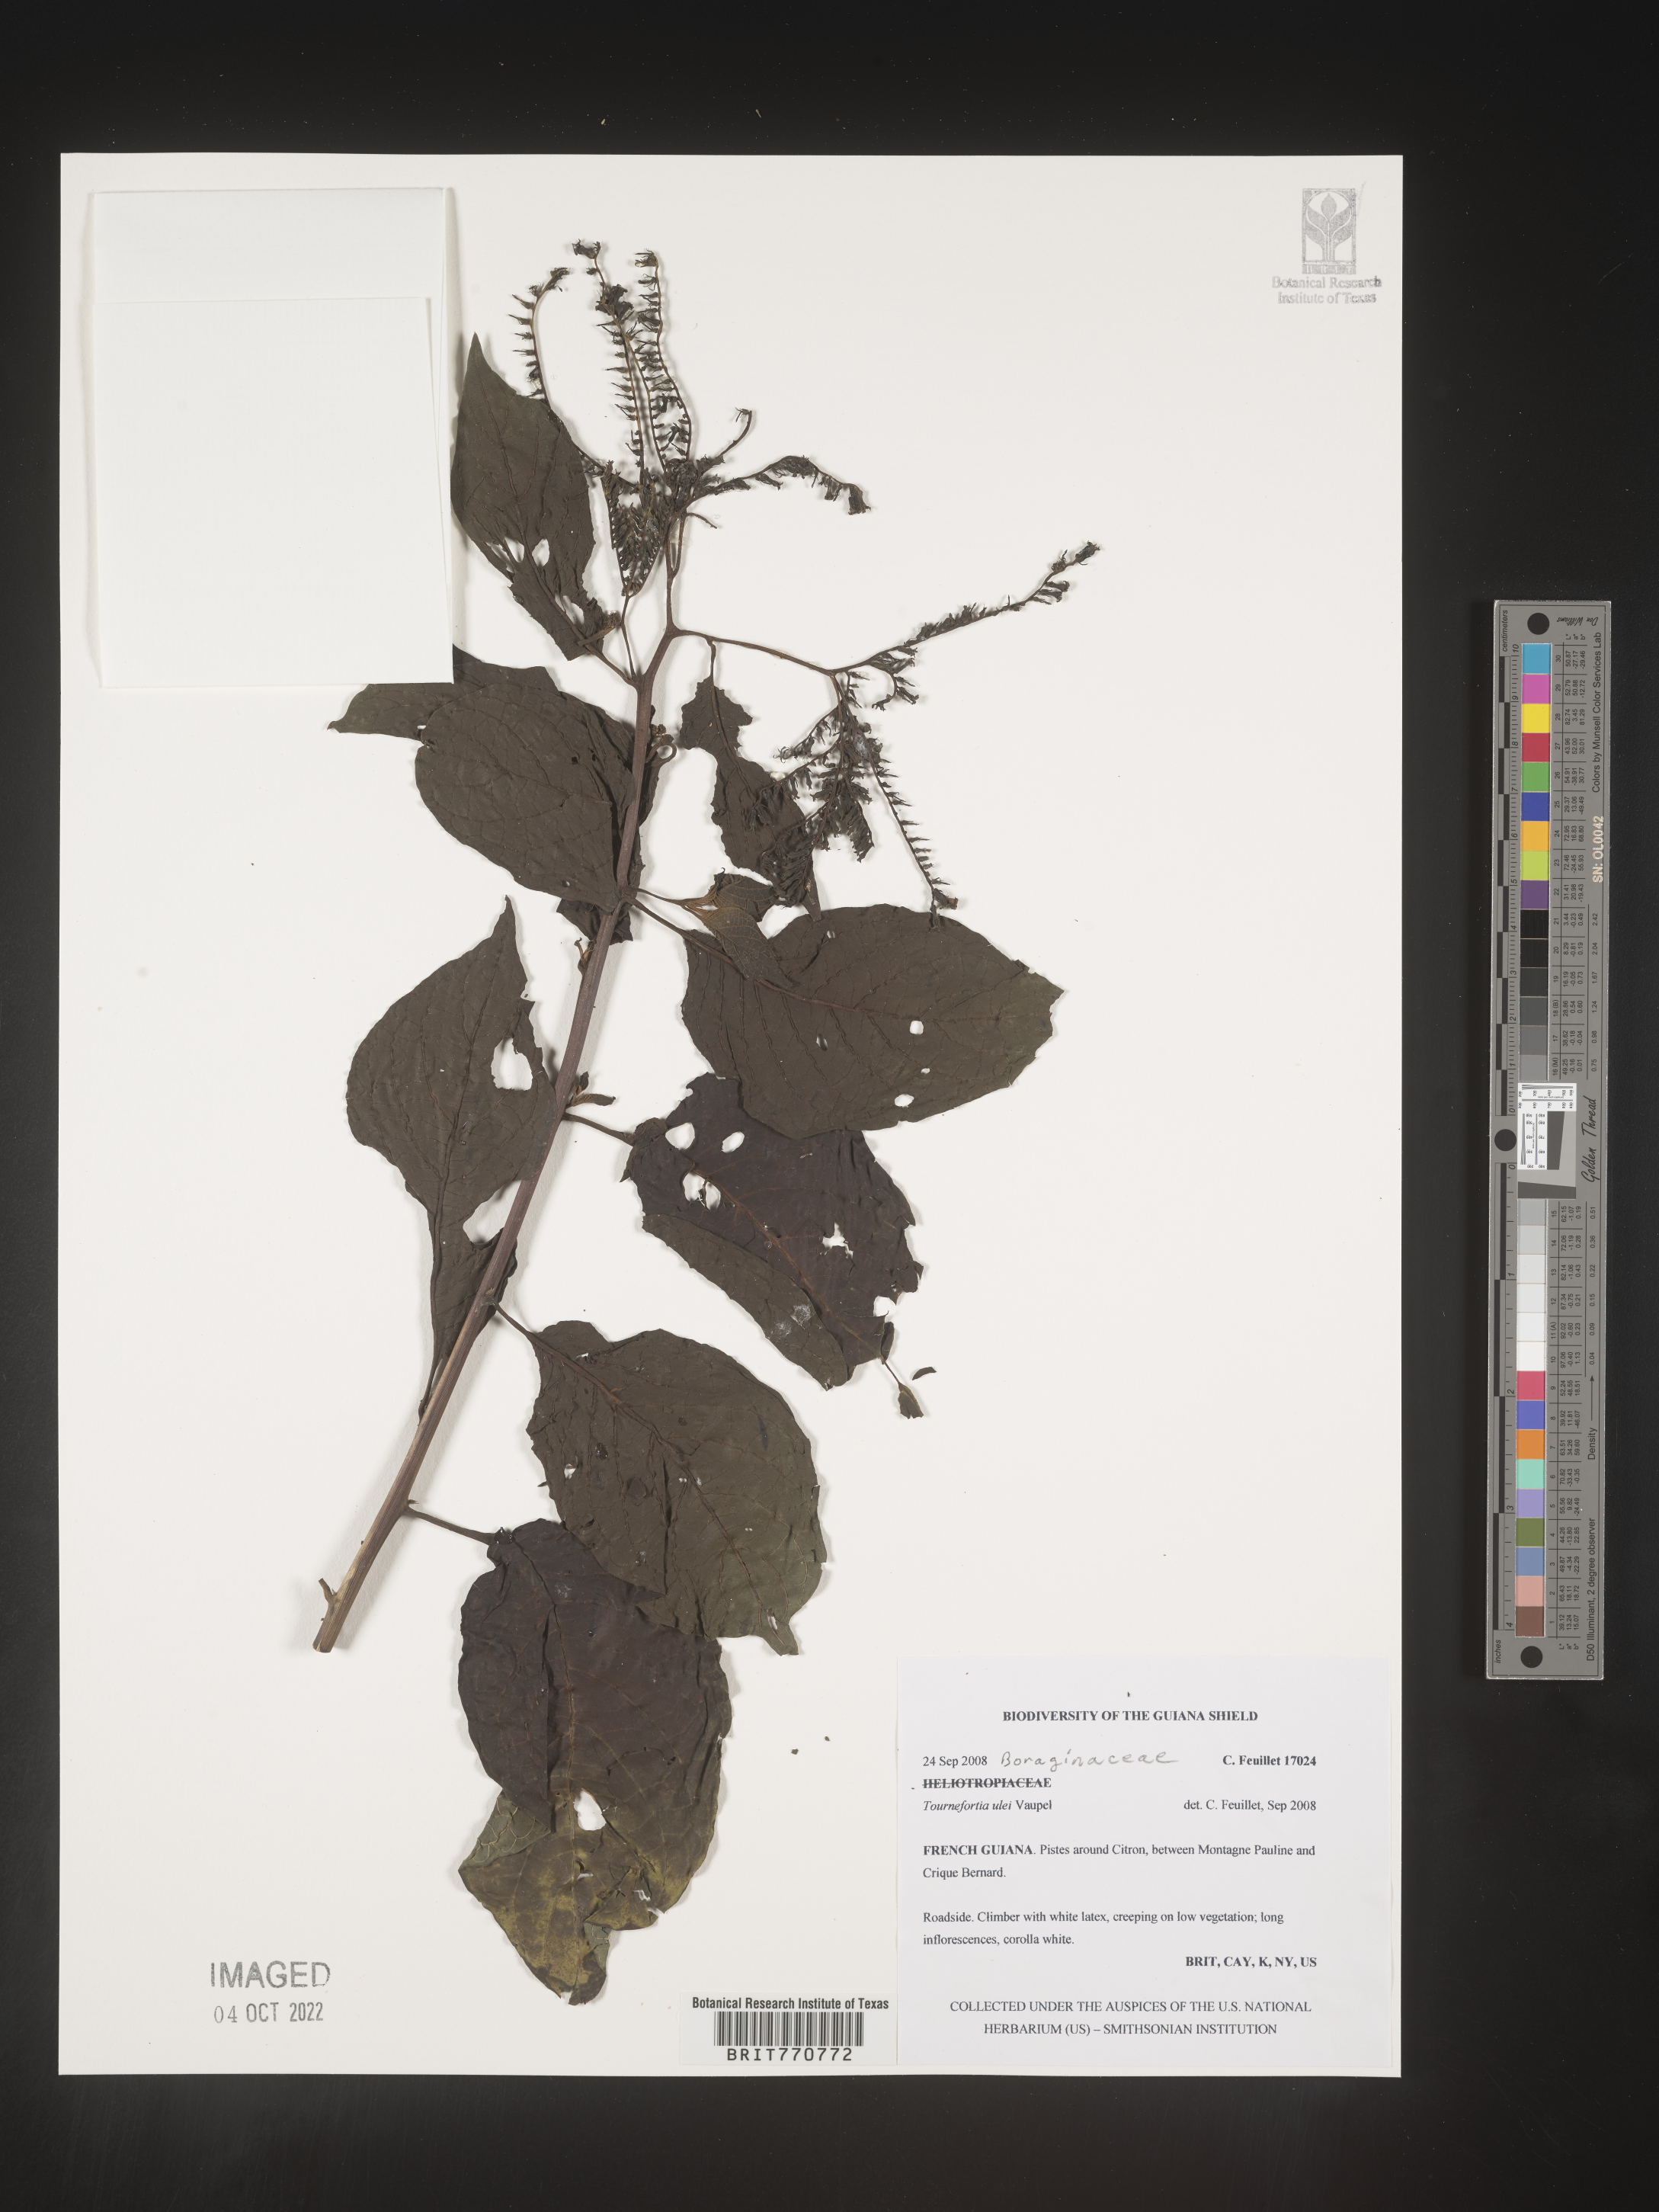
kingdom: Plantae
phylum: Tracheophyta
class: Magnoliopsida
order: Boraginales
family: Heliotropiaceae
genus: Tournefortia
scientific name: Tournefortia
